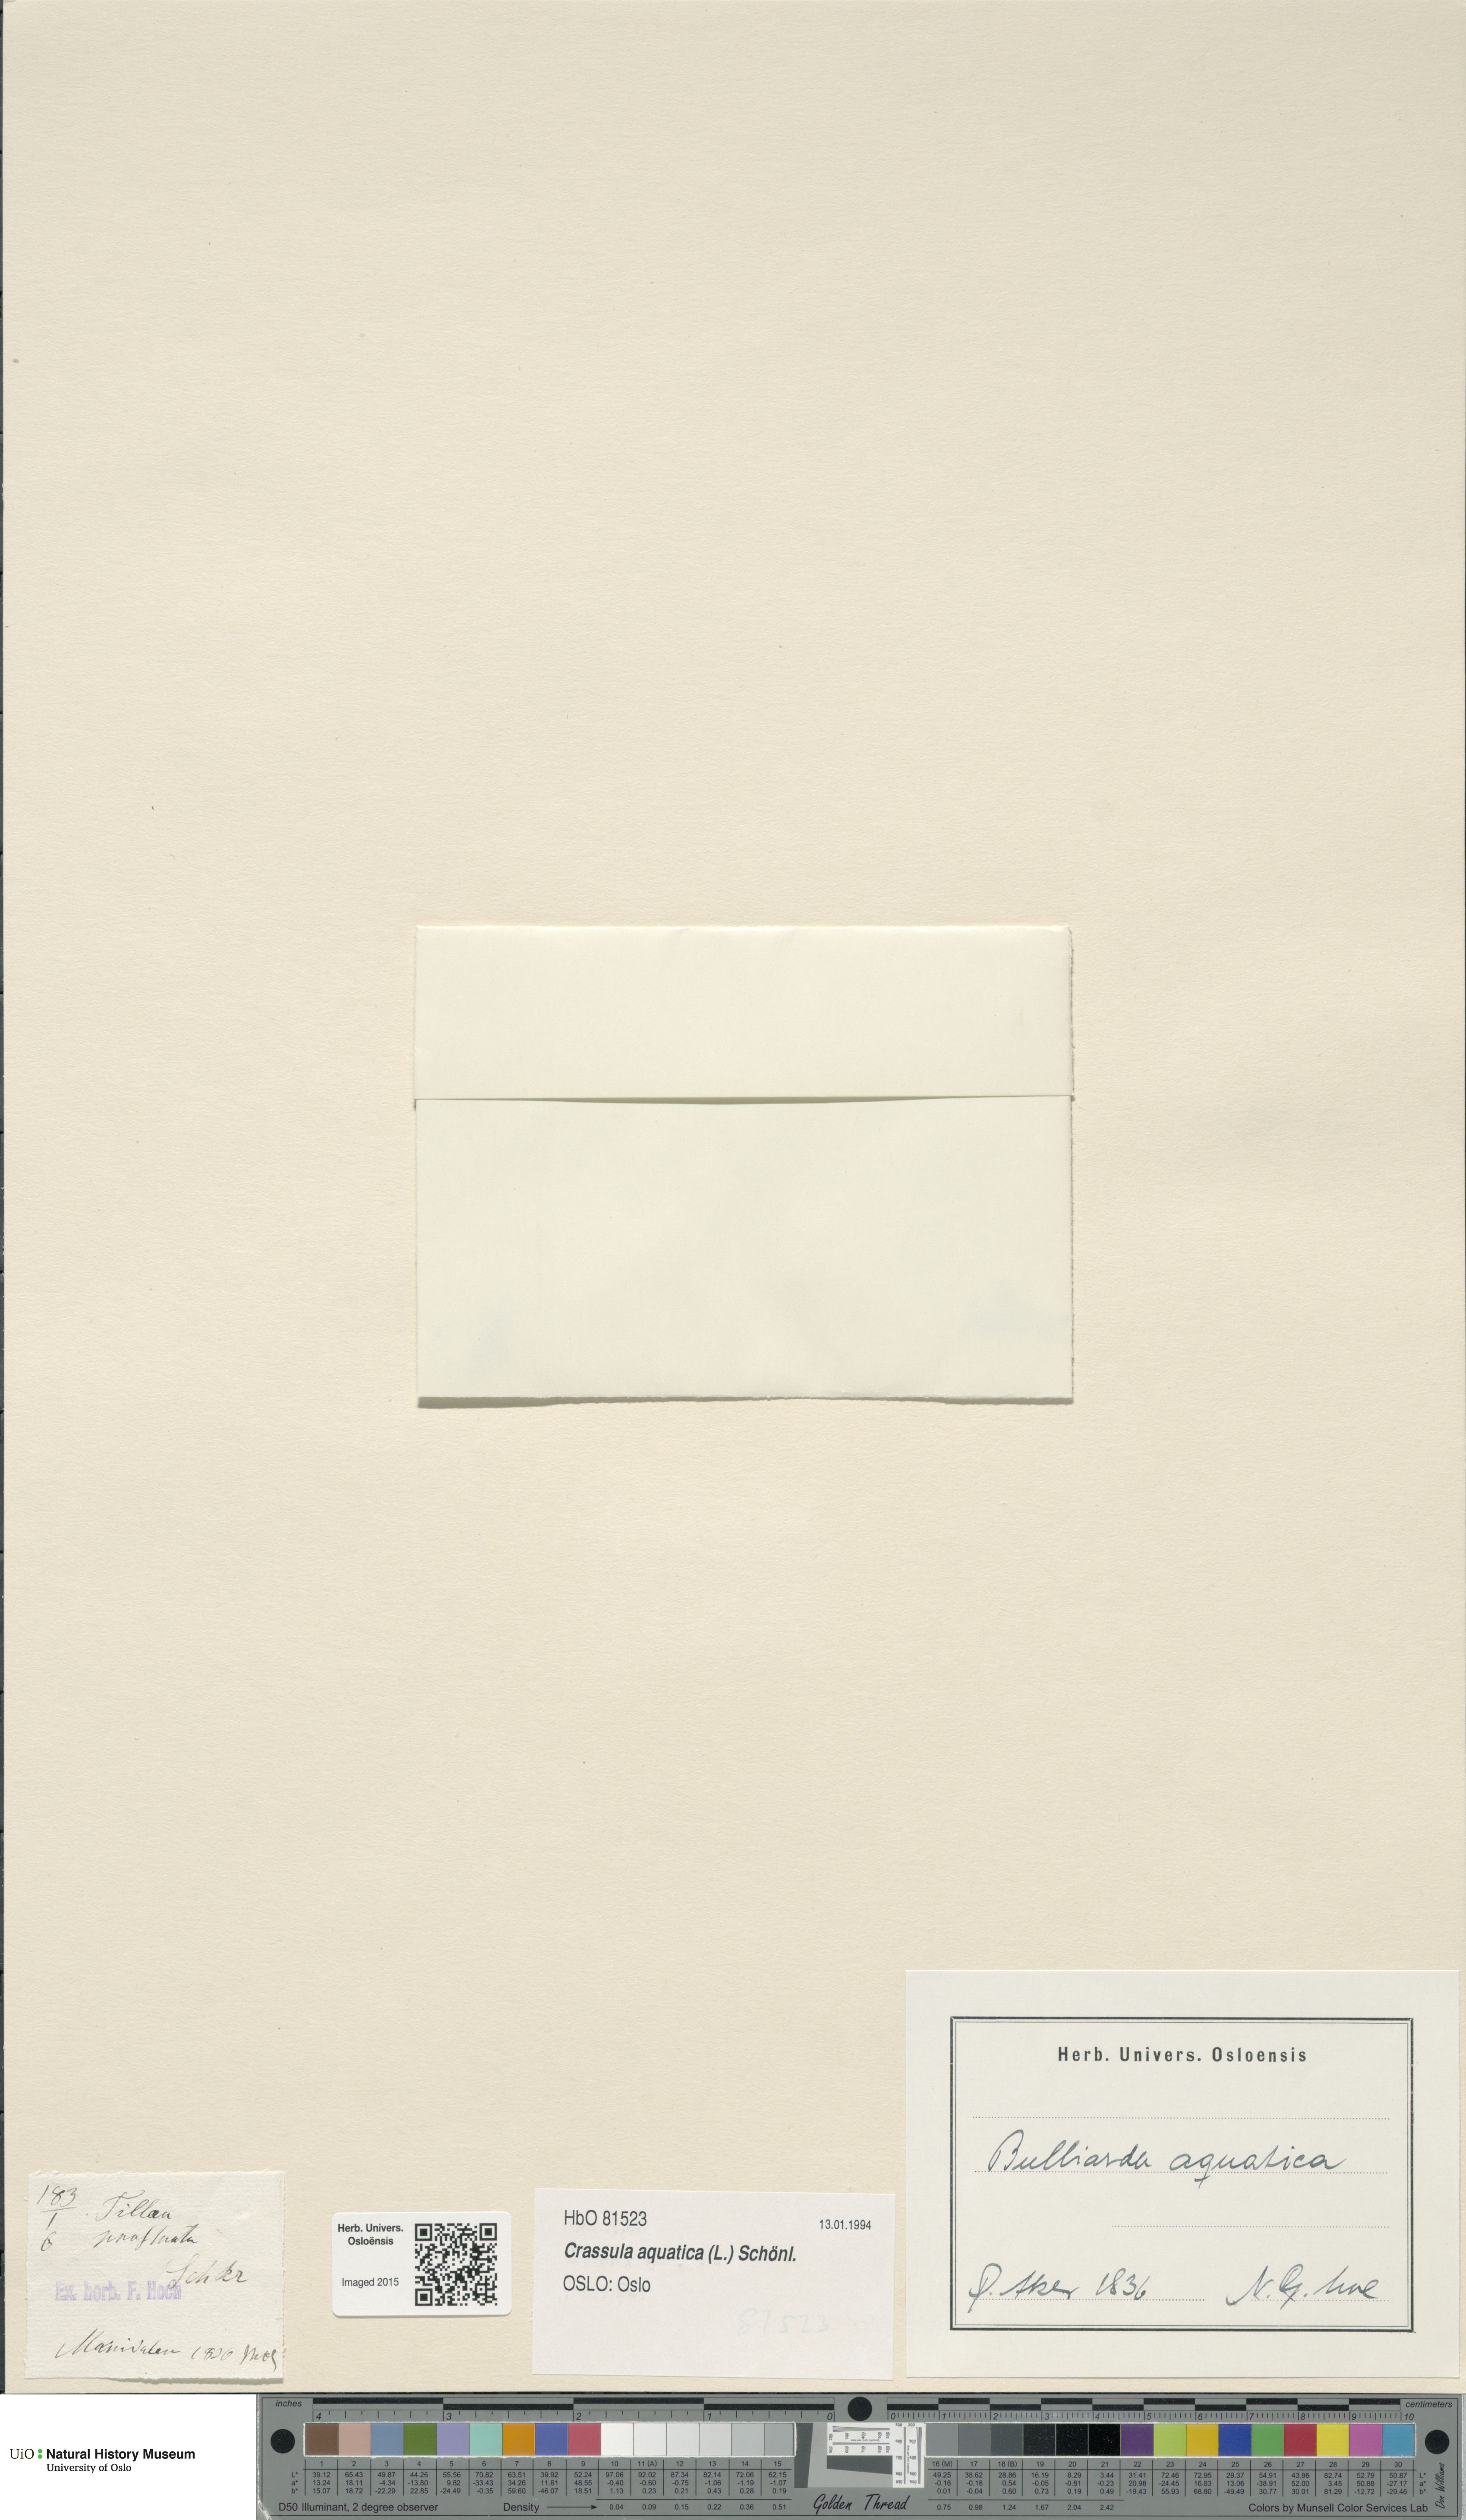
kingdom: Plantae
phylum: Tracheophyta
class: Magnoliopsida
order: Saxifragales
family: Crassulaceae
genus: Crassula
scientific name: Crassula aquatica
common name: Pigmyweed
